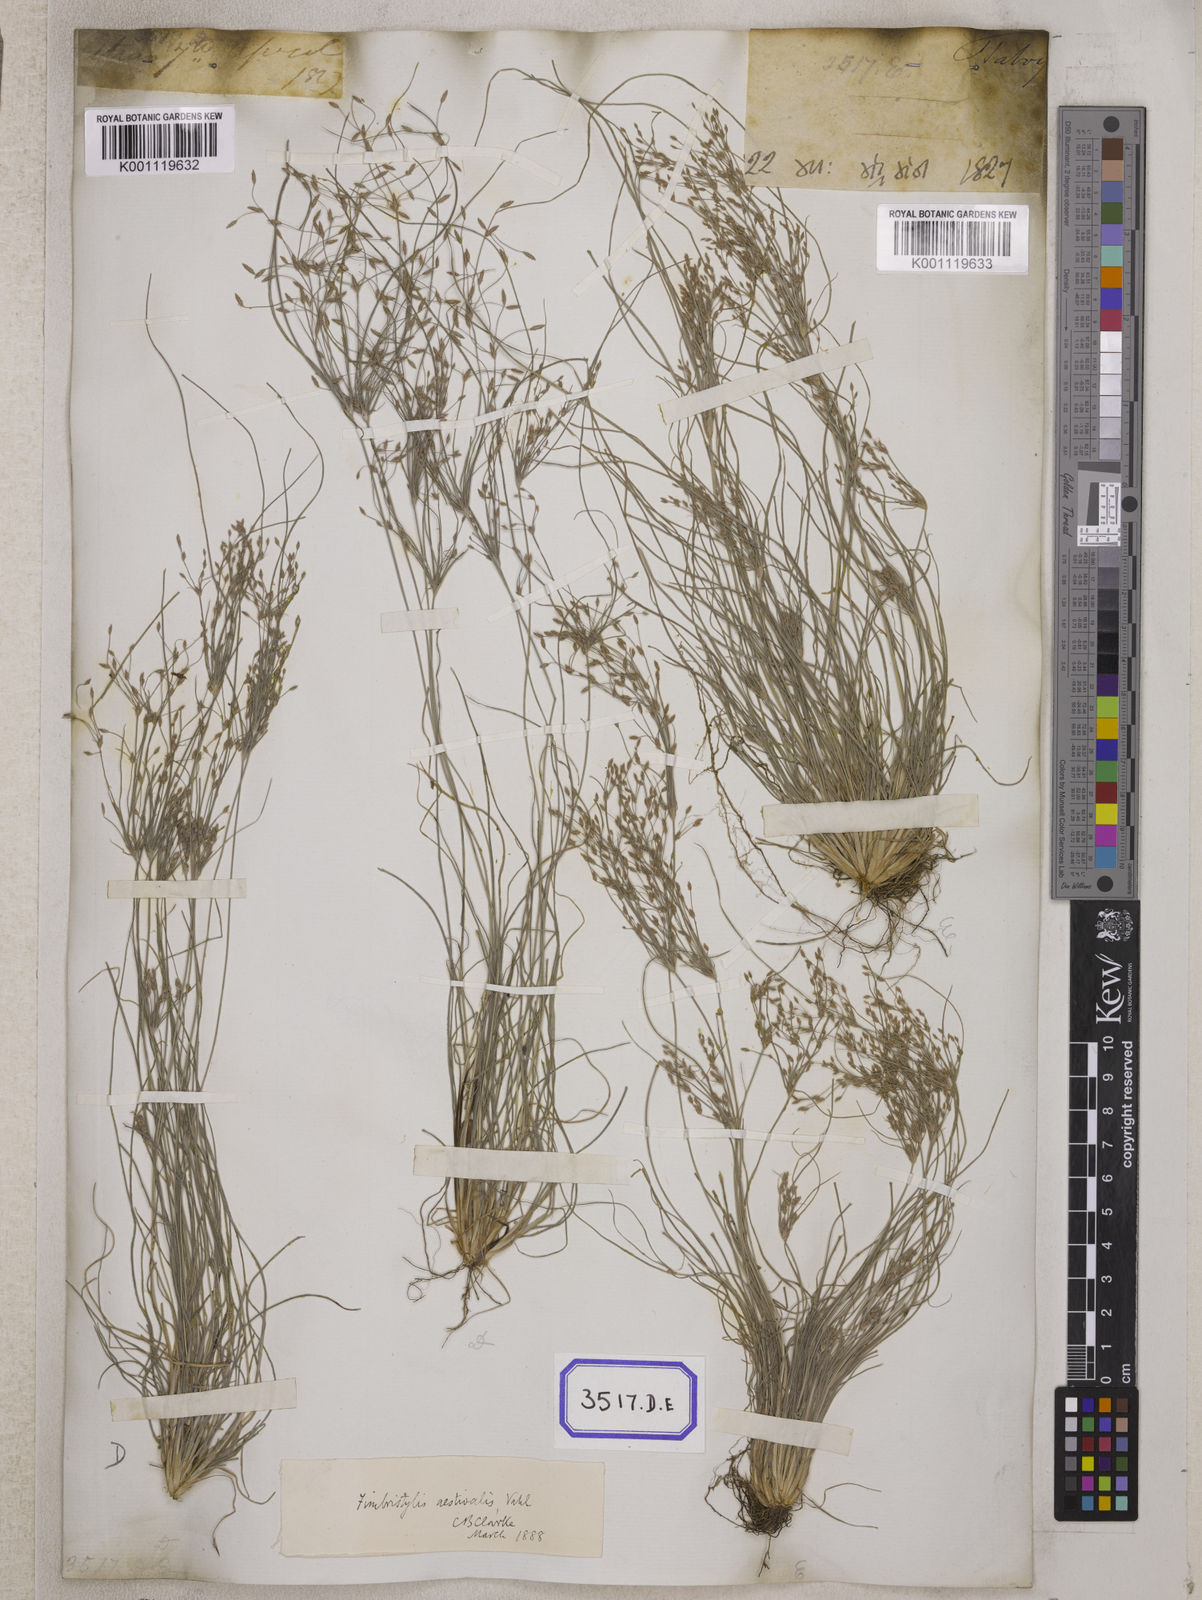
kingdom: Plantae
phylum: Tracheophyta
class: Liliopsida
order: Poales
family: Cyperaceae
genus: Fimbristylis
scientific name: Fimbristylis
